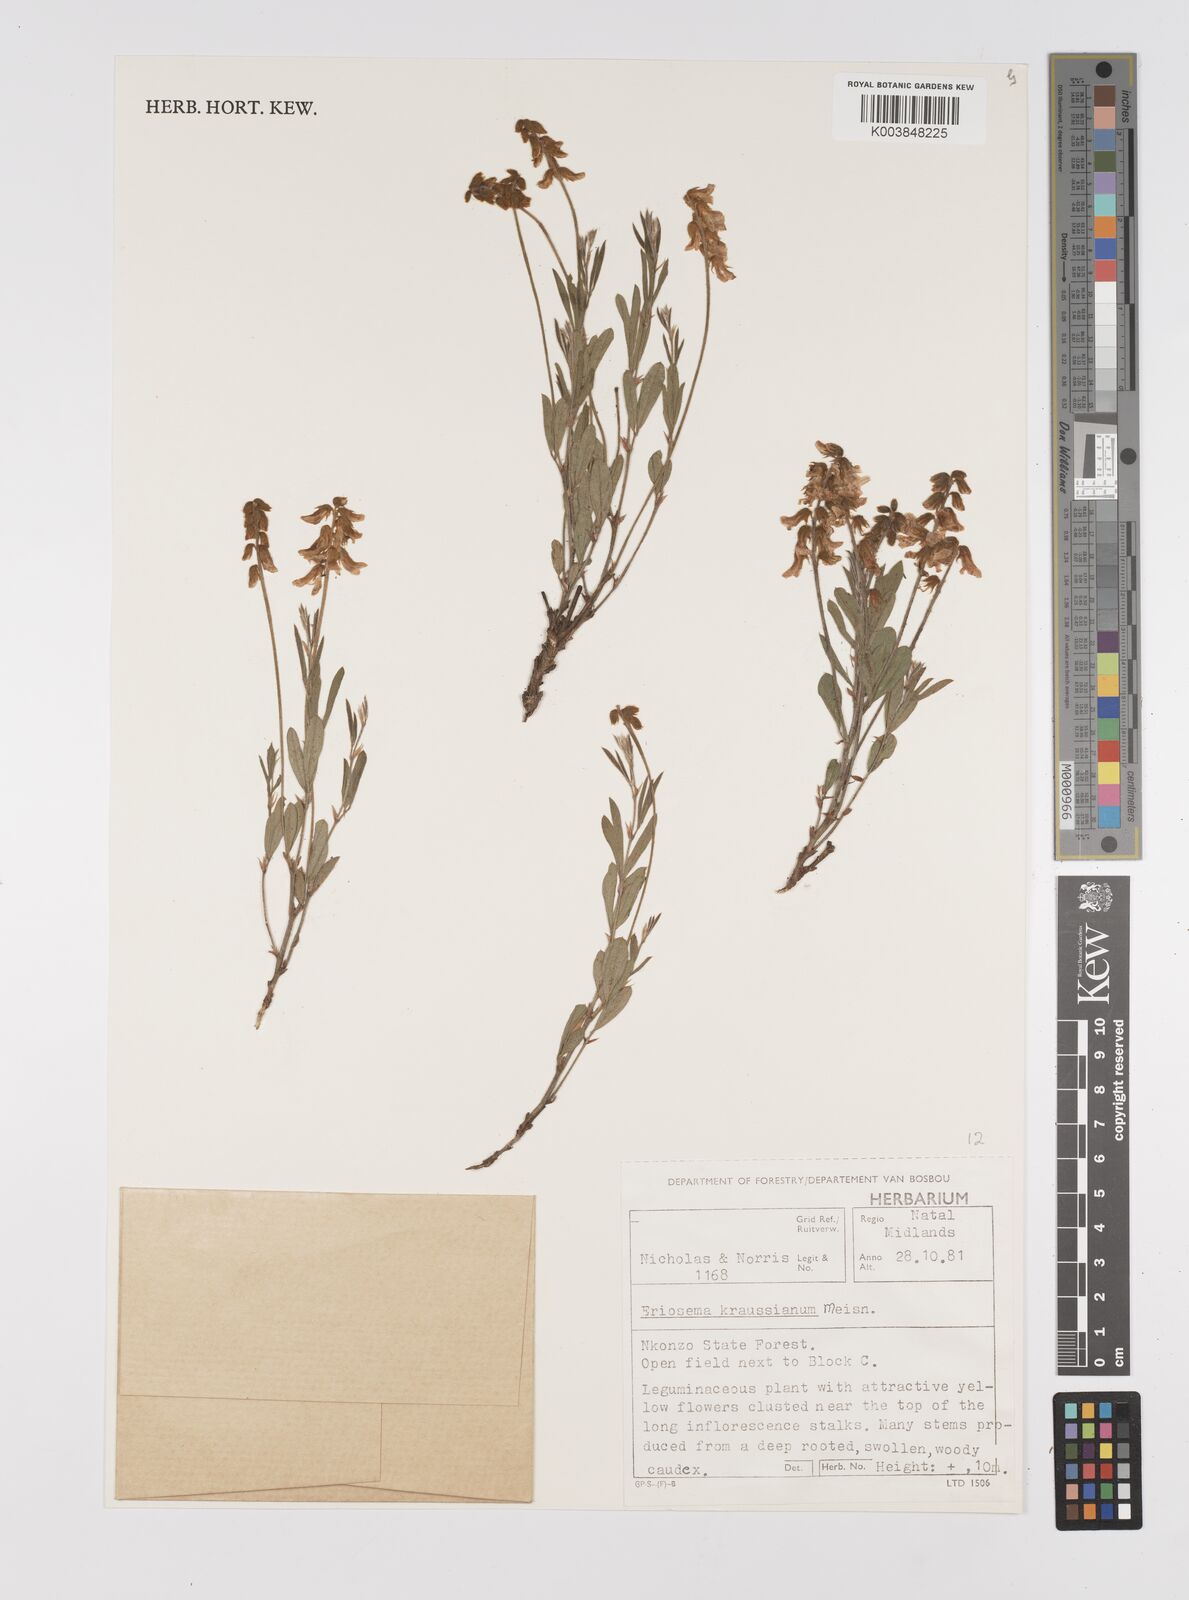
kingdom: Plantae
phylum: Tracheophyta
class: Magnoliopsida
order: Fabales
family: Fabaceae
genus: Eriosema
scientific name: Eriosema kraussianum
